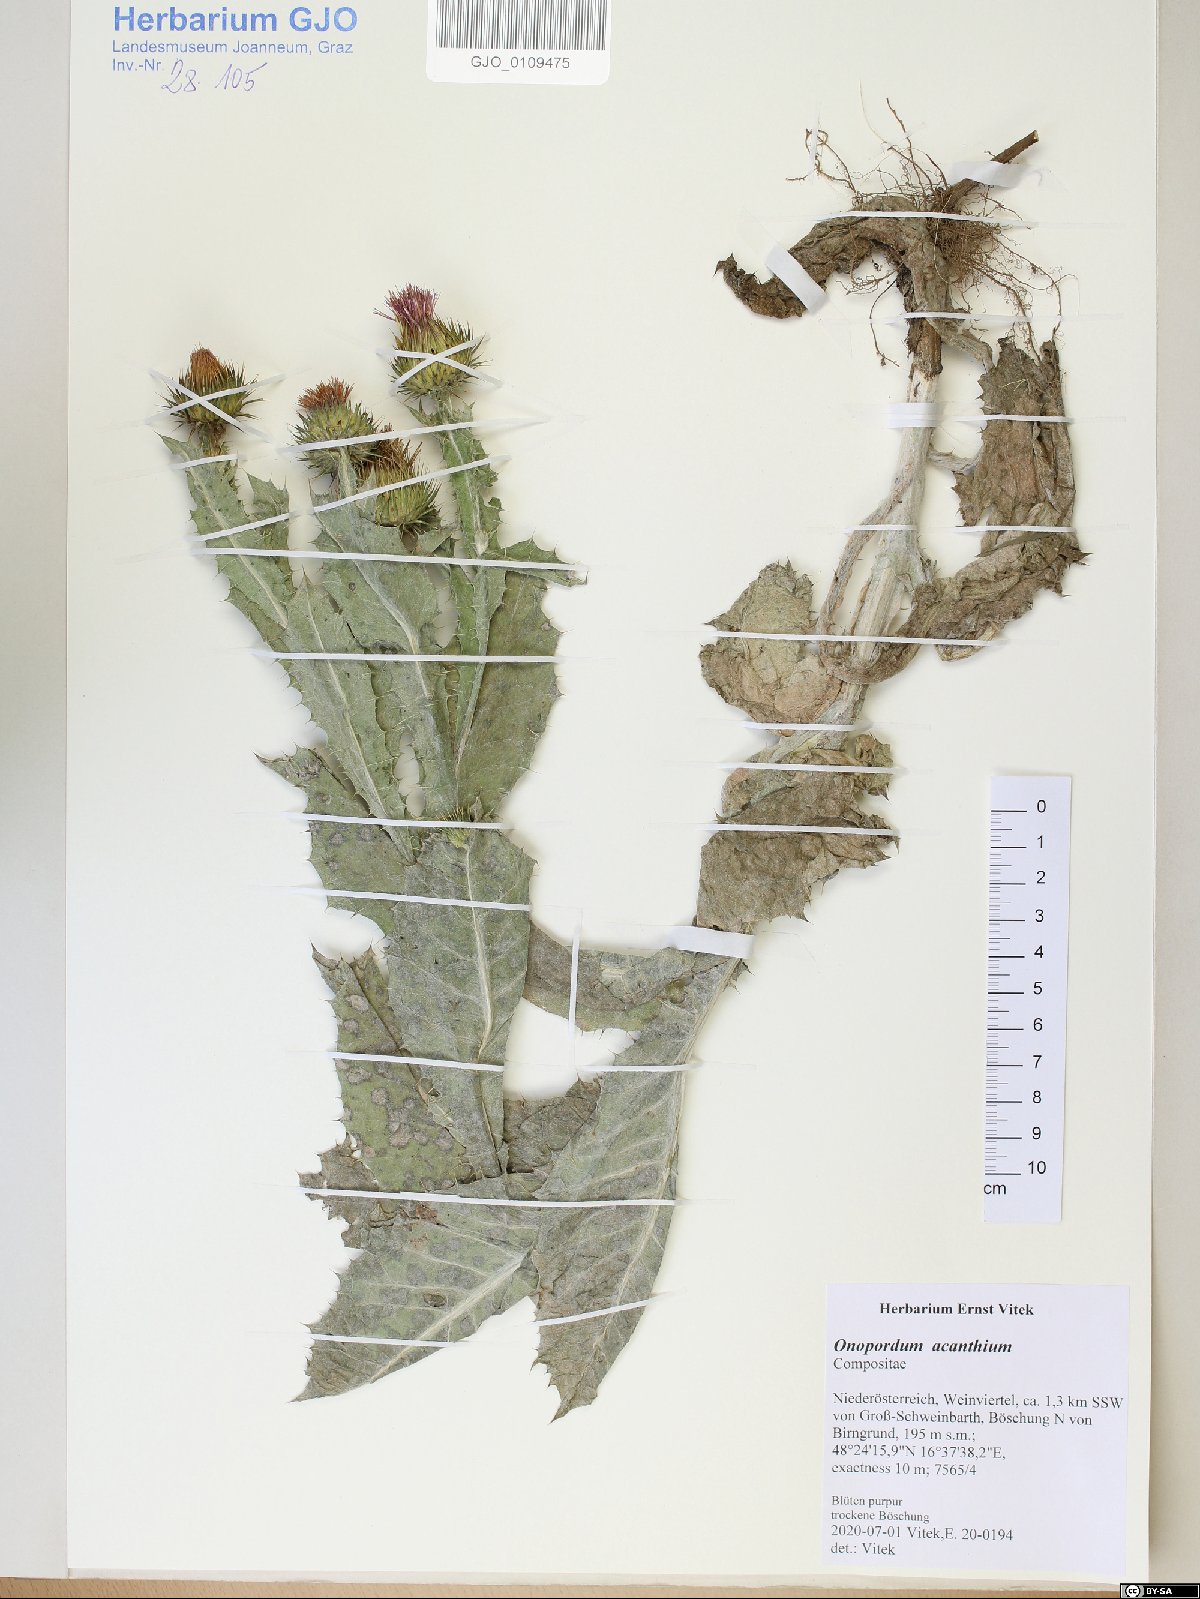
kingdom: Plantae
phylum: Tracheophyta
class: Magnoliopsida
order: Asterales
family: Asteraceae
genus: Onopordum
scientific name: Onopordum acanthium
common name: Scotch thistle
